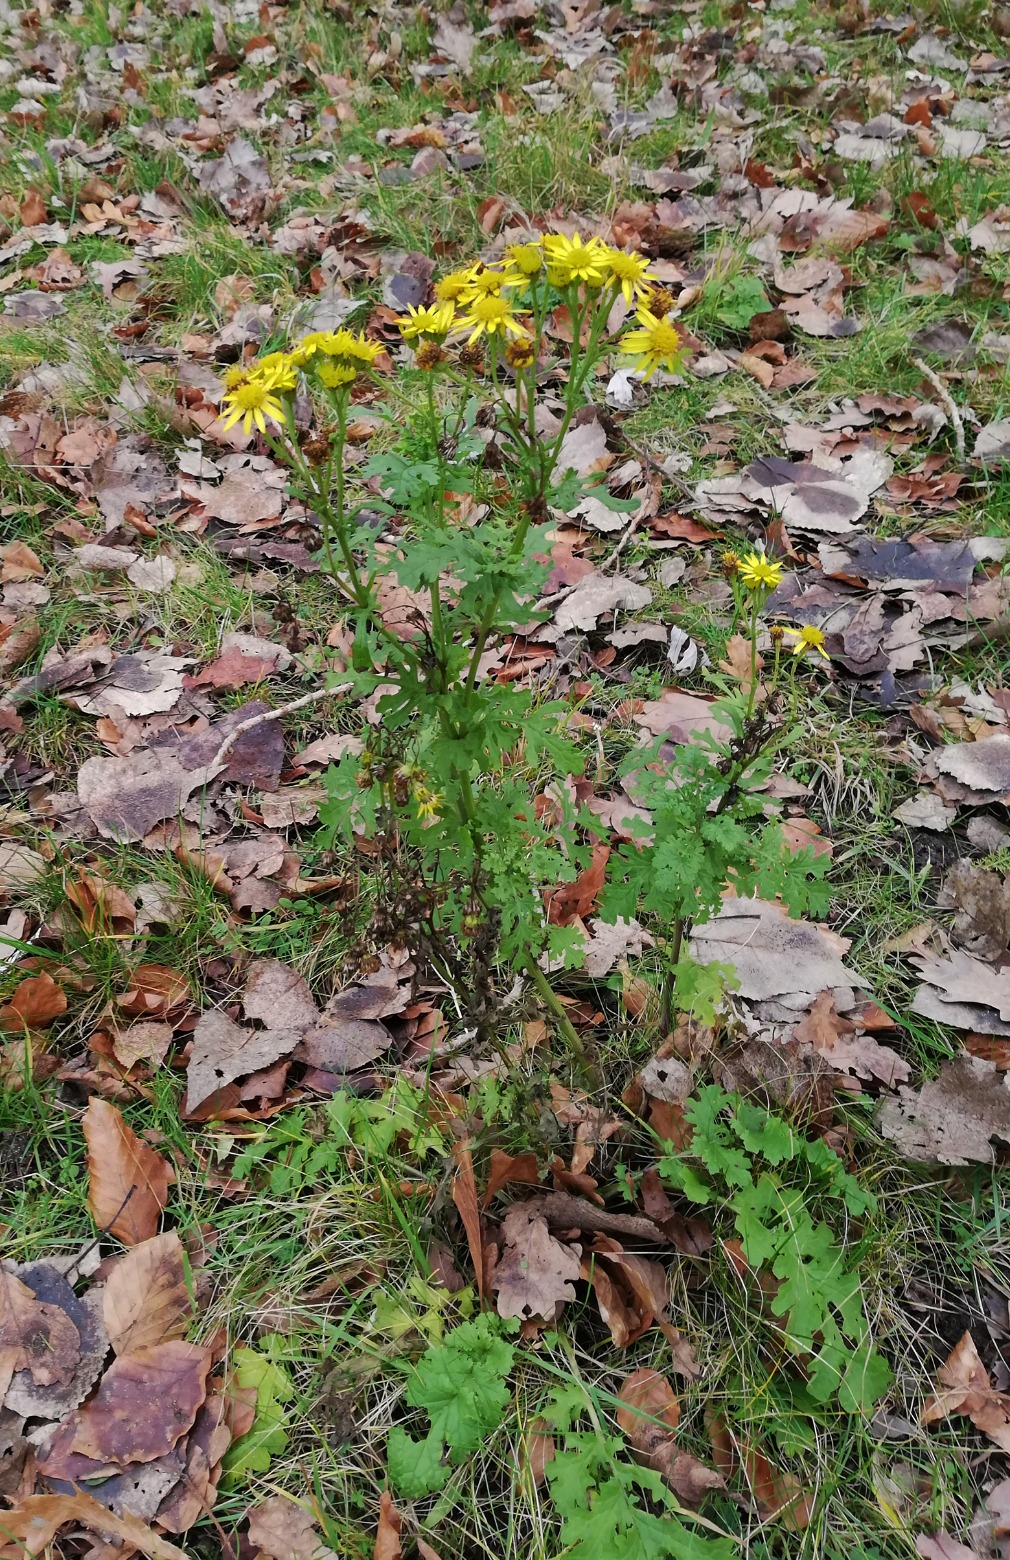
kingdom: Plantae
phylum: Tracheophyta
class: Magnoliopsida
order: Asterales
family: Asteraceae
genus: Jacobaea
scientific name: Jacobaea vulgaris
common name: Eng-brandbæger
